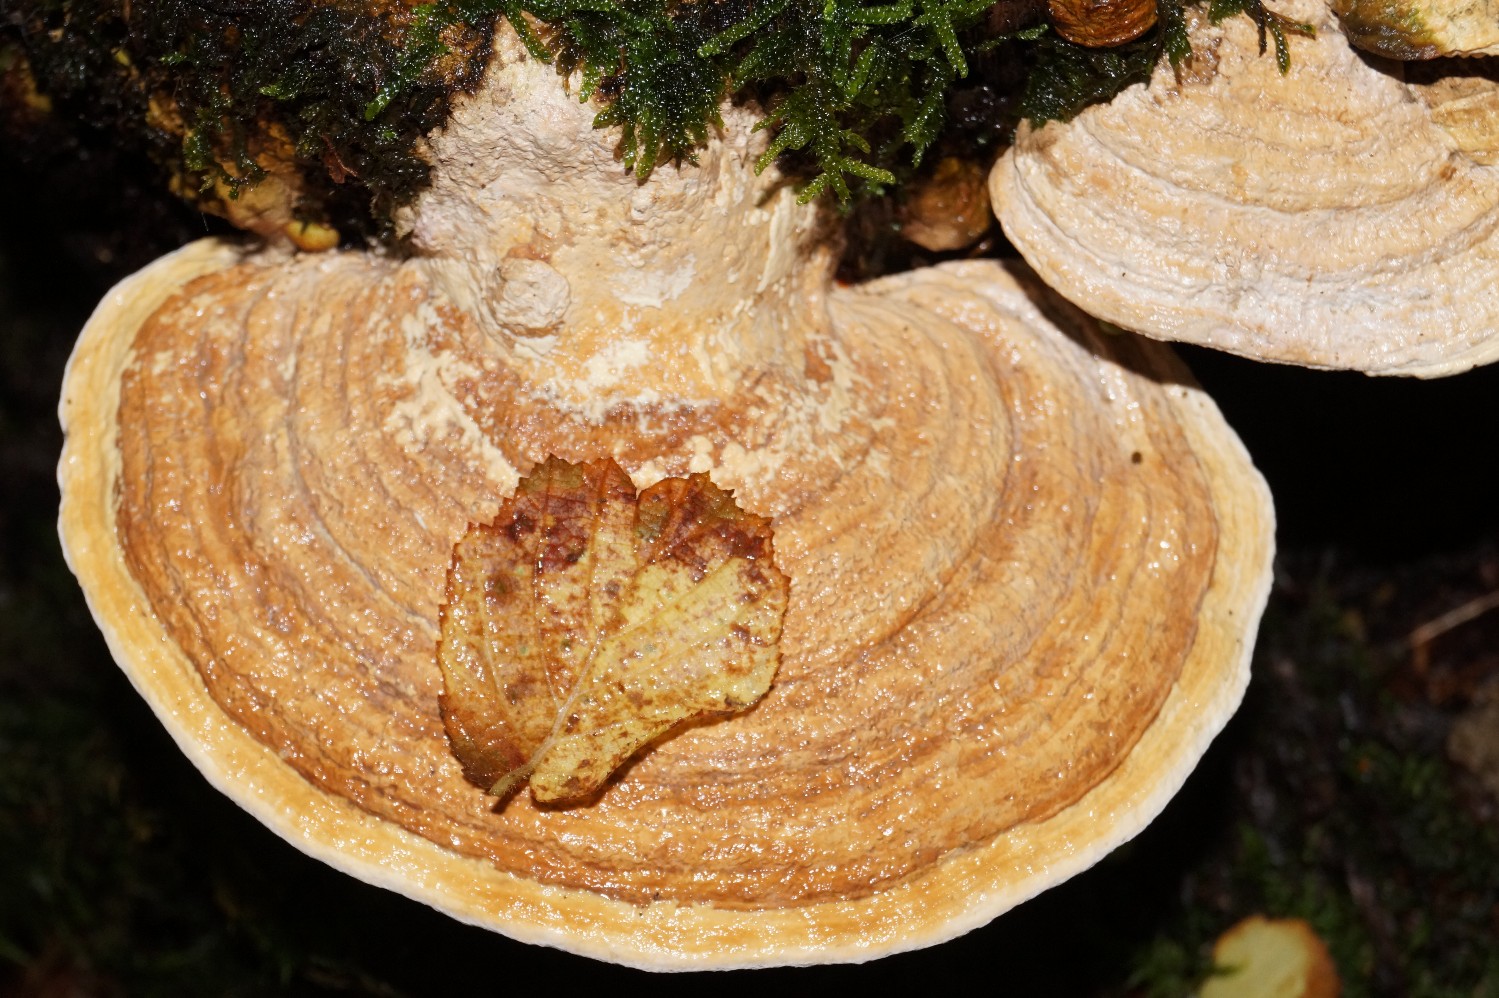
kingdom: Fungi
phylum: Basidiomycota
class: Agaricomycetes
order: Polyporales
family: Fomitopsidaceae
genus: Daedalea
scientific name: Daedalea quercina
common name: ege-labyrintsvamp
